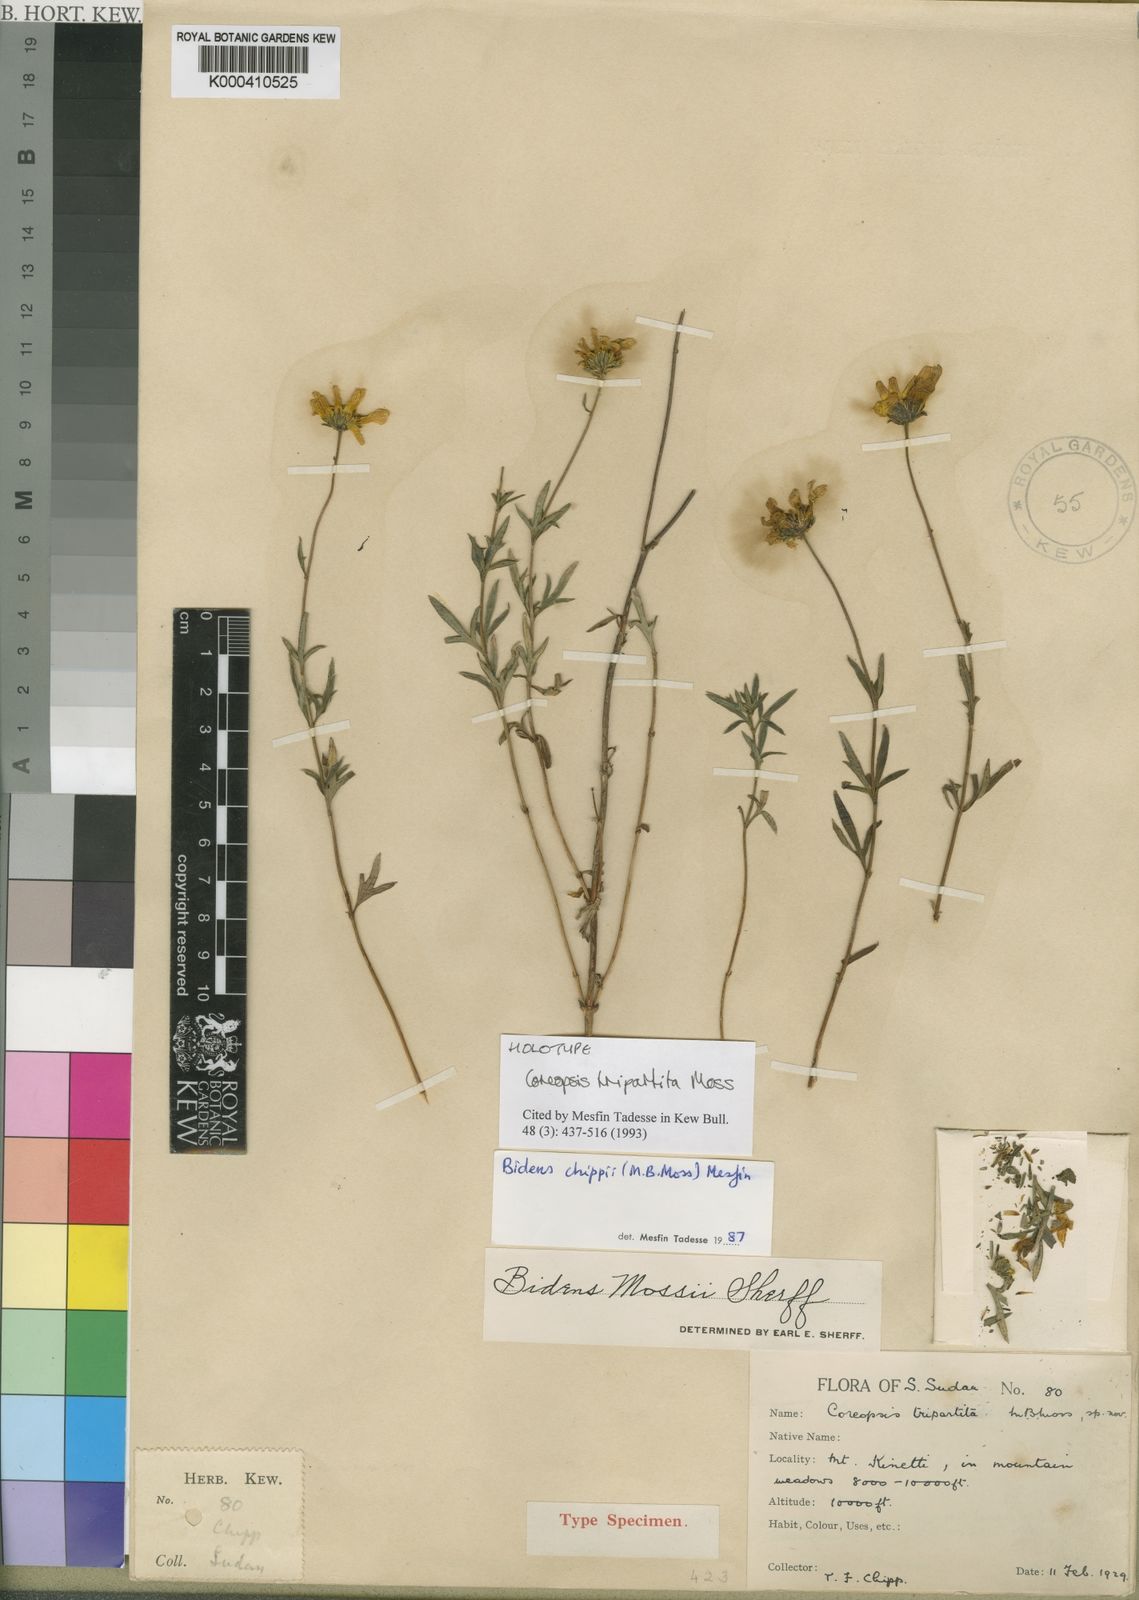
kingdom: Plantae
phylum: Tracheophyta
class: Magnoliopsida
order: Asterales
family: Asteraceae
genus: Bidens
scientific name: Bidens chippii
